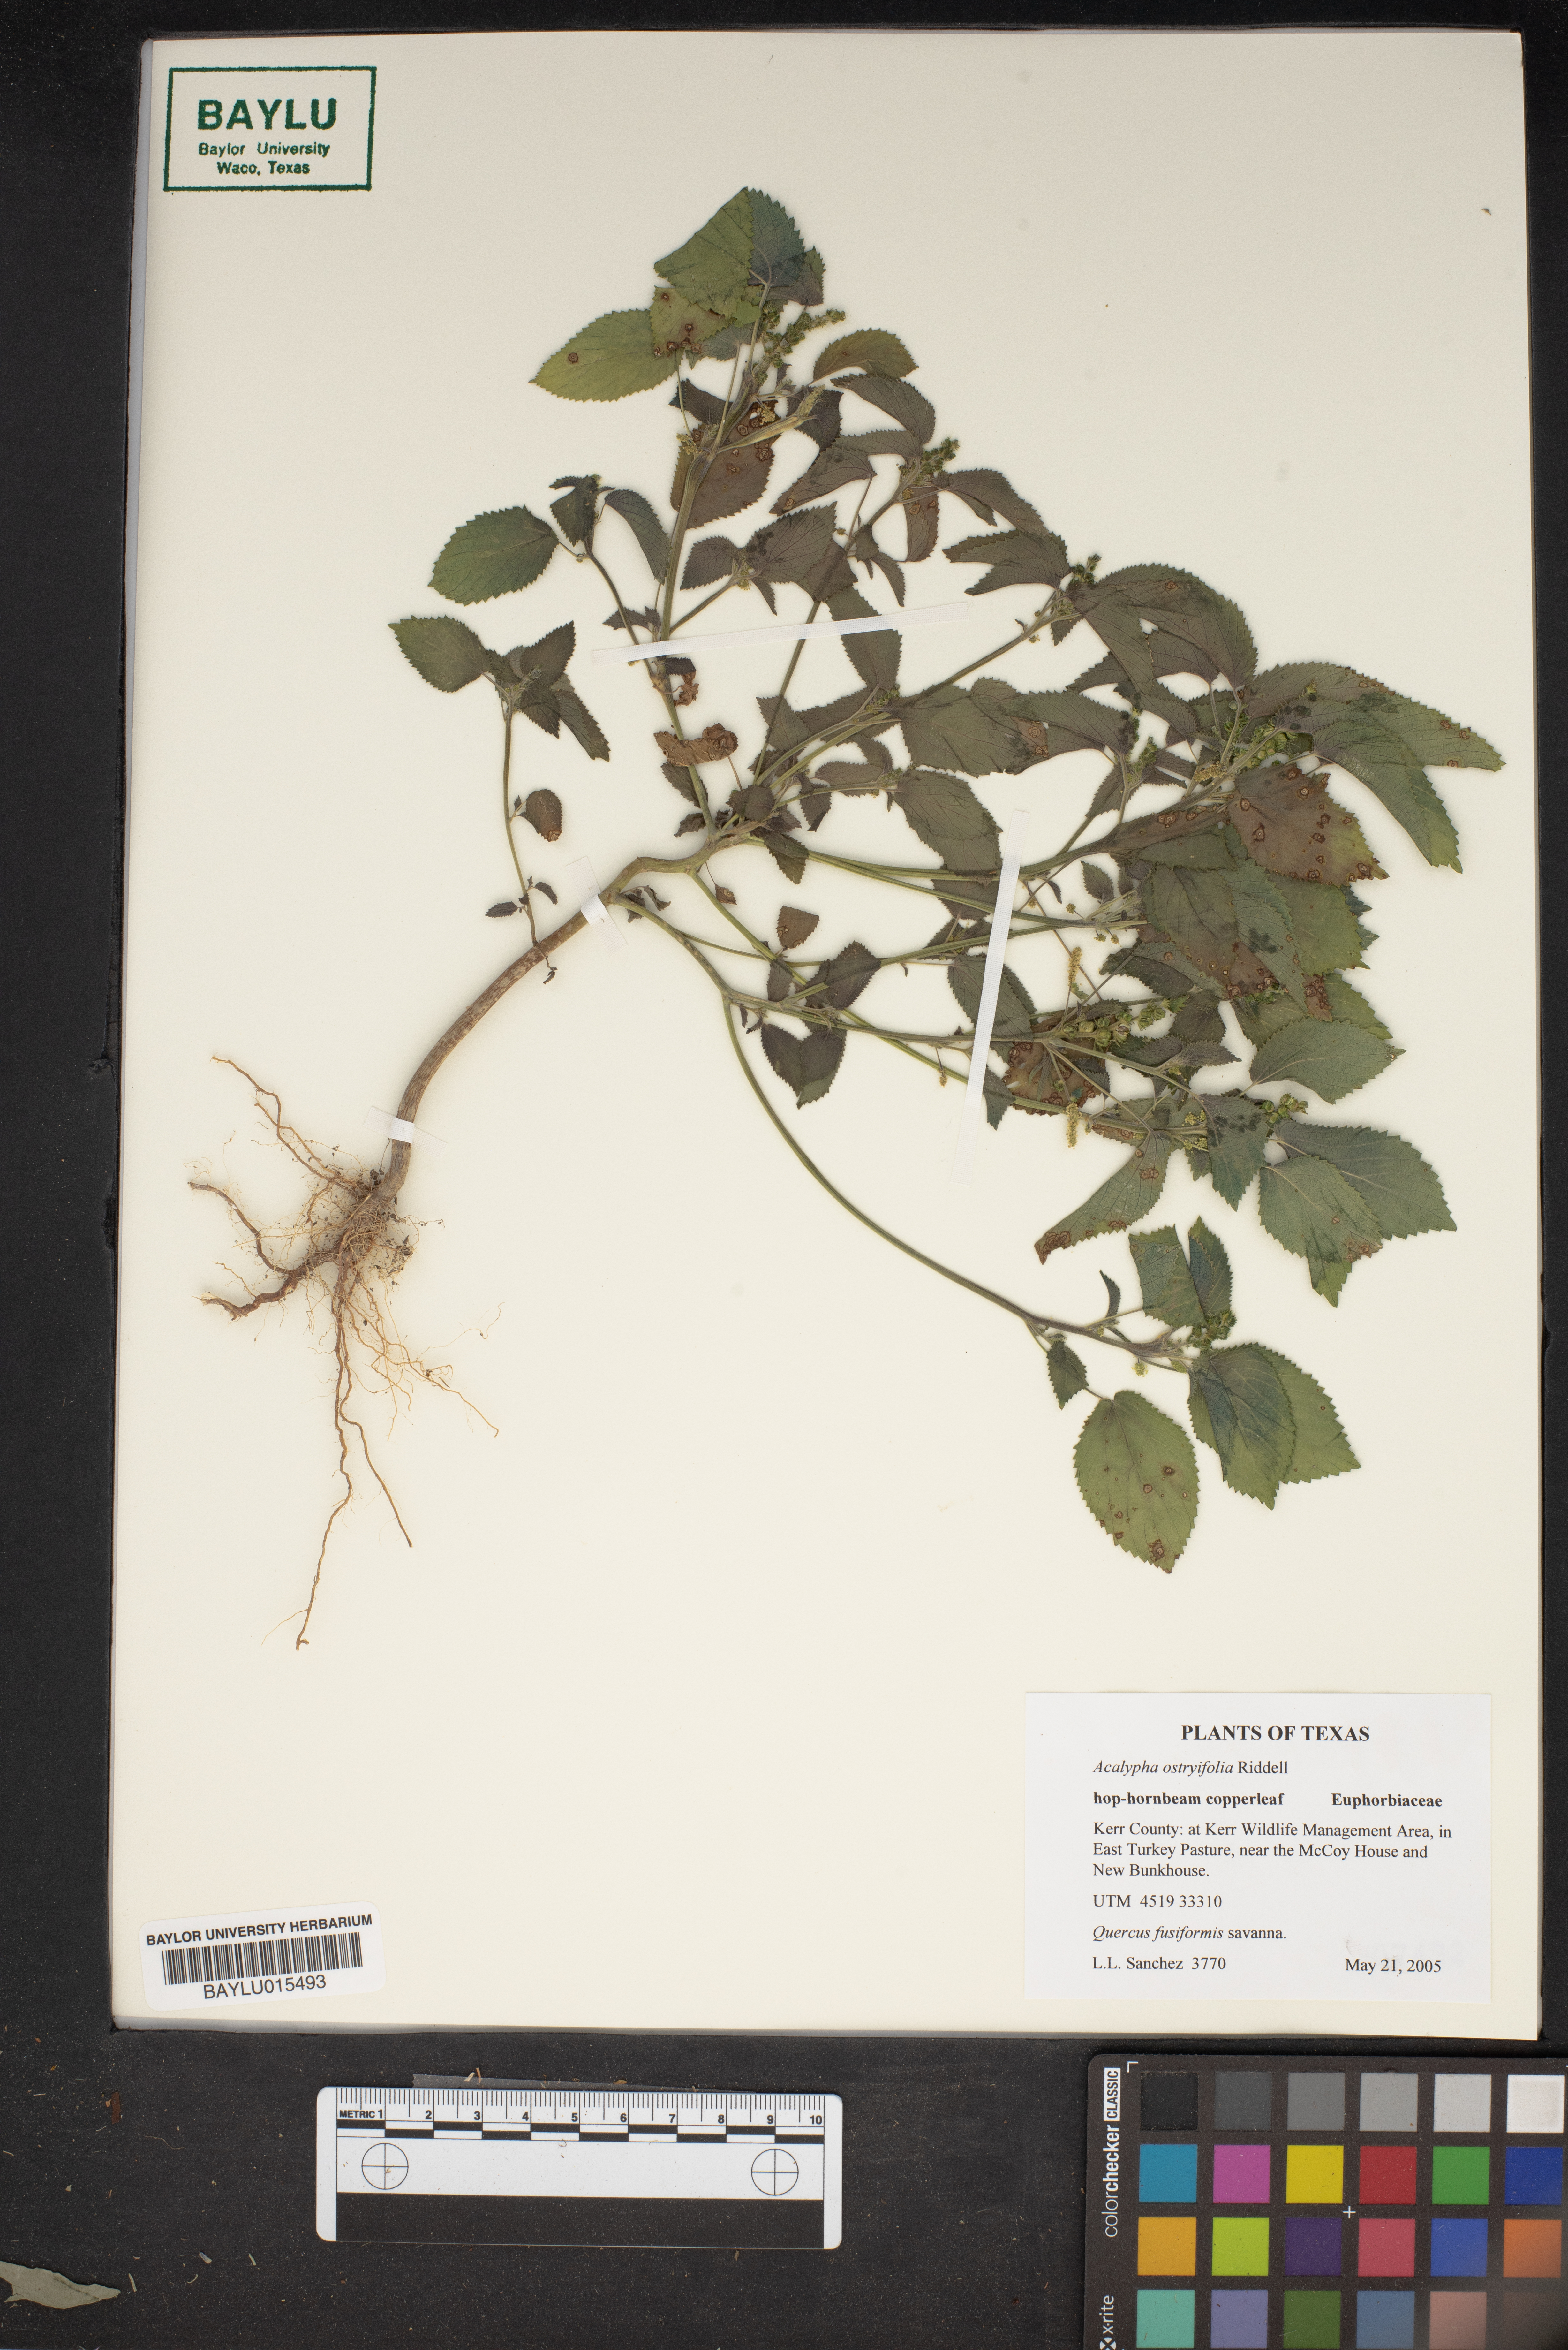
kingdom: Plantae
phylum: Tracheophyta
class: Magnoliopsida
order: Malpighiales
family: Euphorbiaceae
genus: Acalypha
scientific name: Acalypha persimilis
